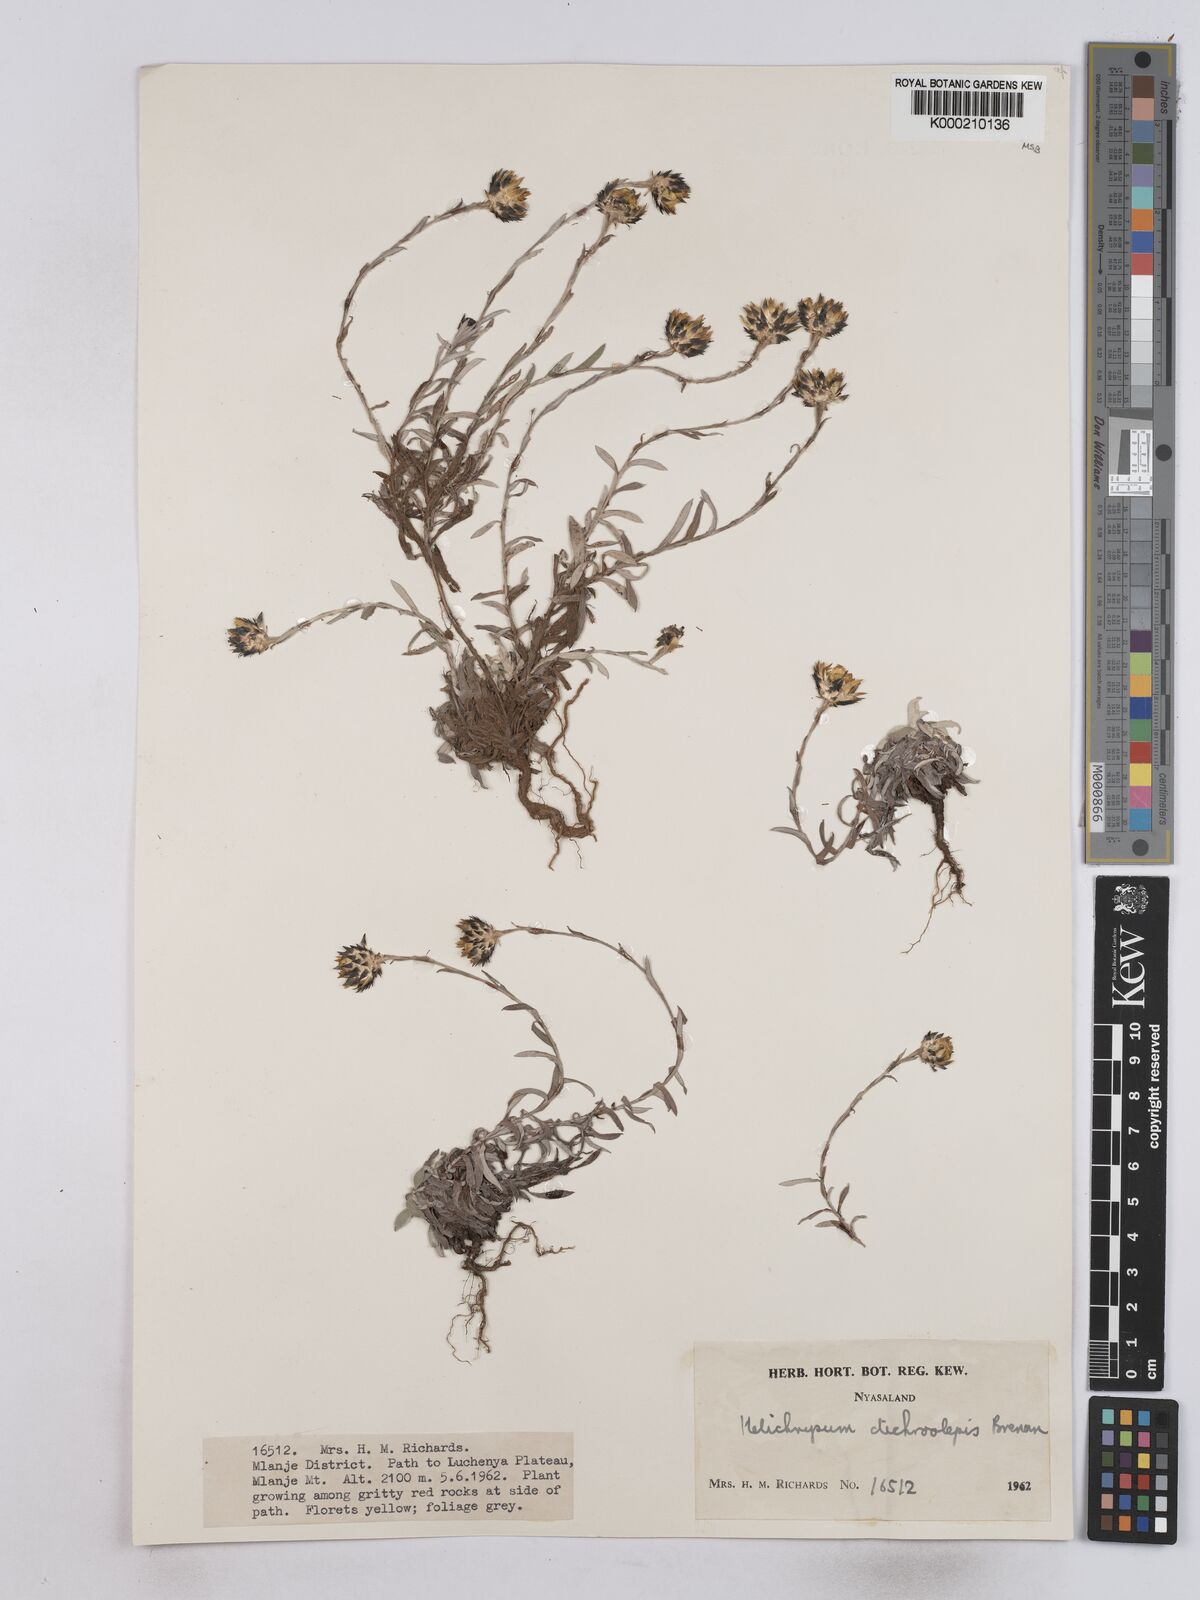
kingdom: Plantae
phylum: Tracheophyta
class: Magnoliopsida
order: Asterales
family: Asteraceae
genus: Helichrysum
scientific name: Helichrysum
